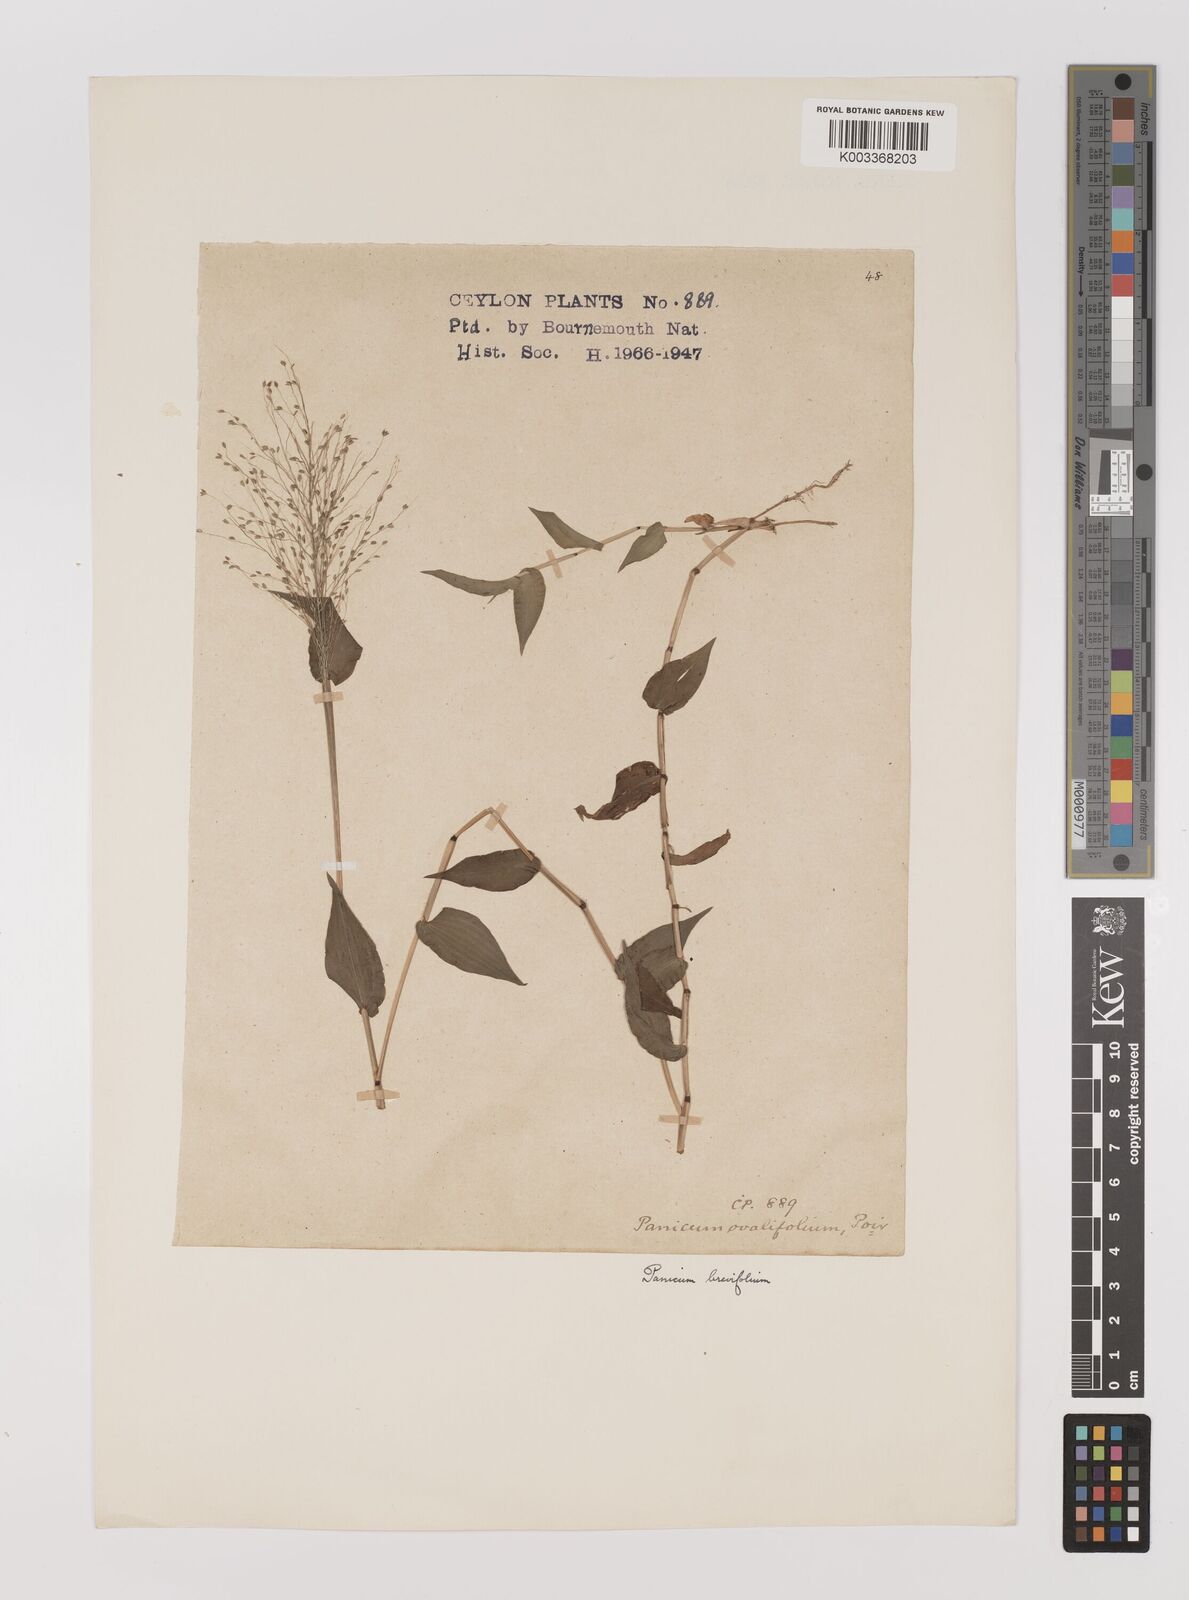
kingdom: Plantae
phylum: Tracheophyta
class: Liliopsida
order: Poales
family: Poaceae
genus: Panicum
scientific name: Panicum brevifolium
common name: Shortleaf panic grass
